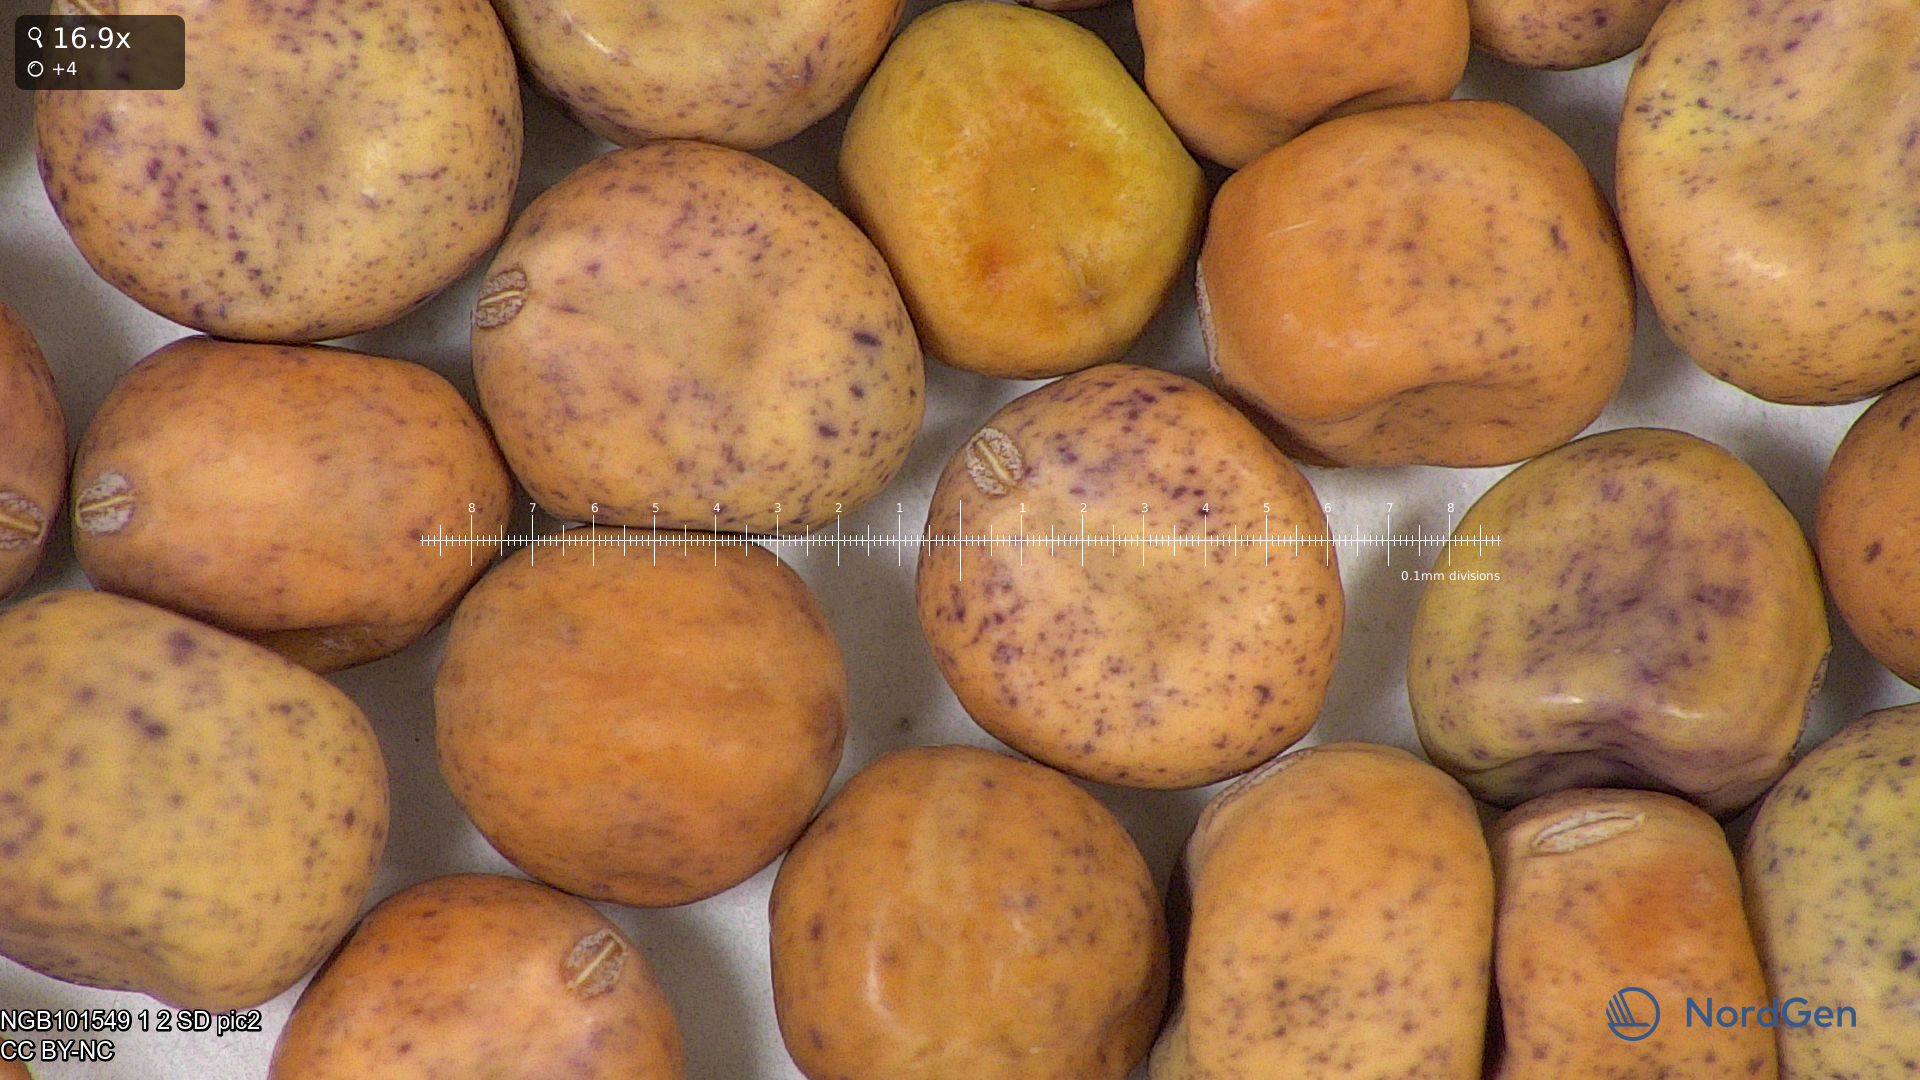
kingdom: Plantae
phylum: Tracheophyta
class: Magnoliopsida
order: Fabales
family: Fabaceae
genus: Lathyrus
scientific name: Lathyrus oleraceus
